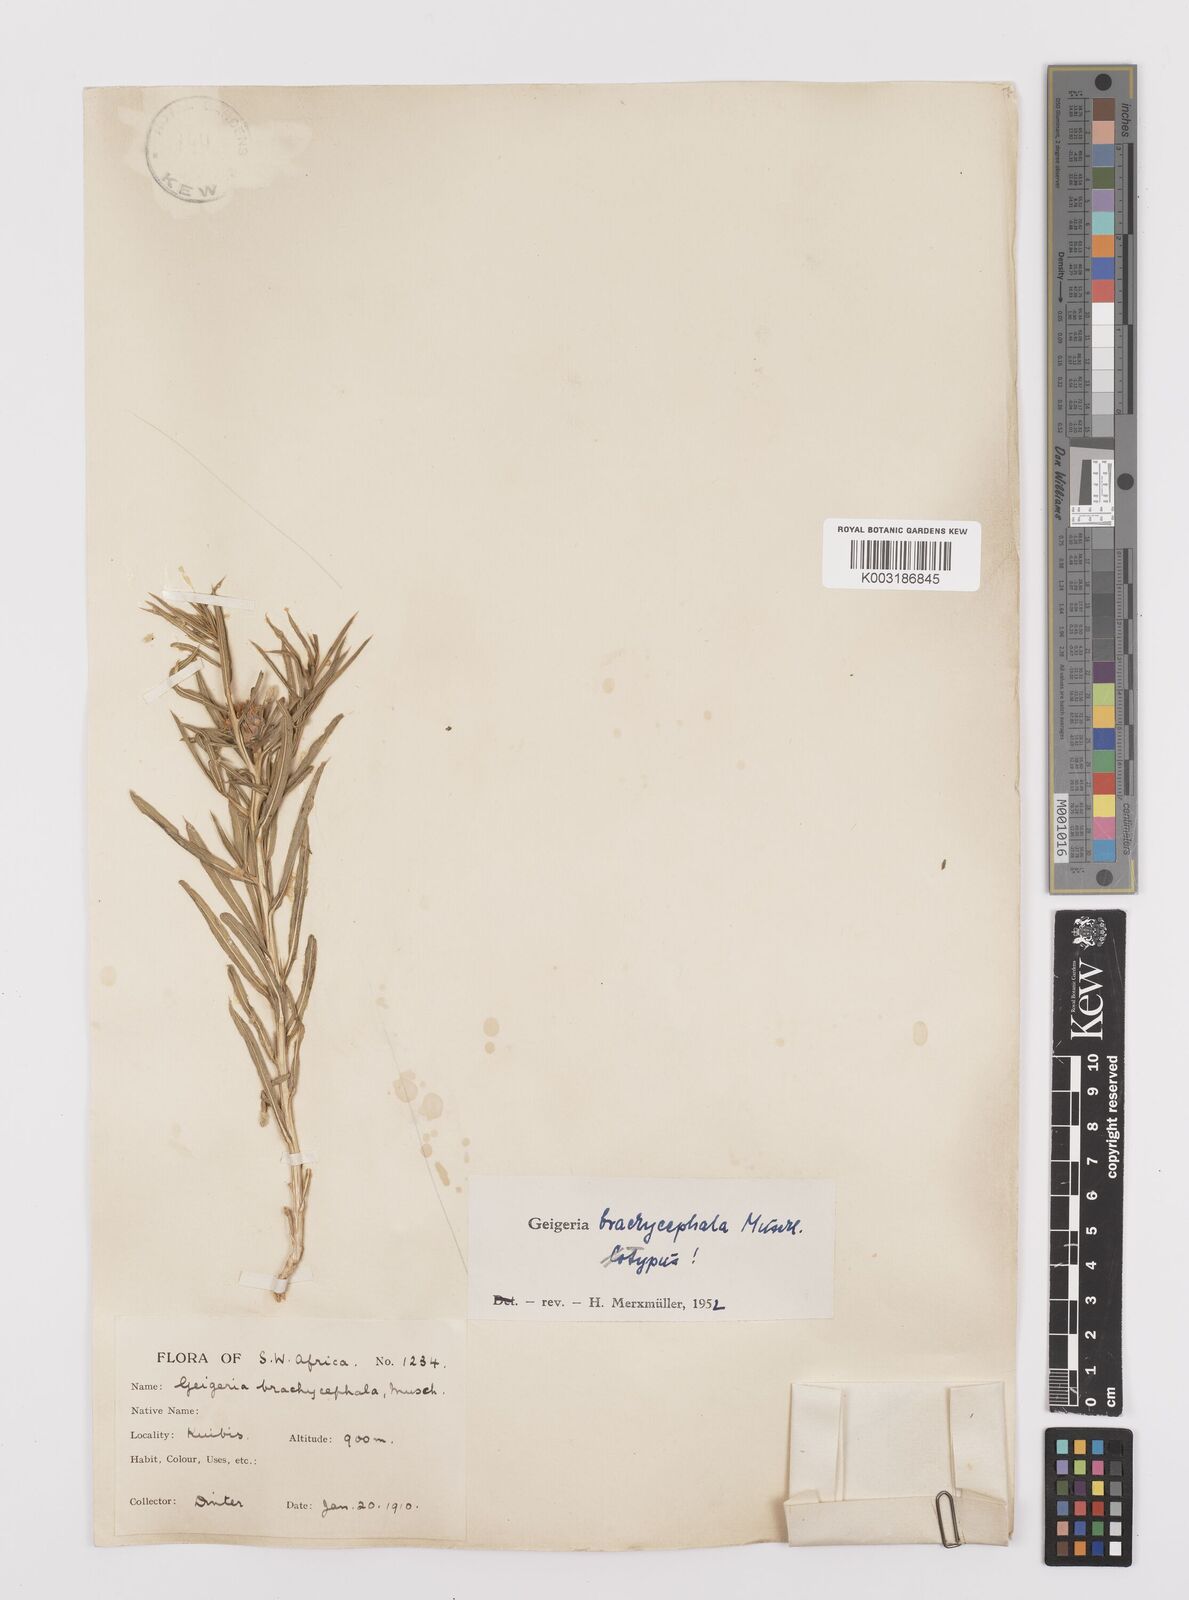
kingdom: Plantae
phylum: Tracheophyta
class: Magnoliopsida
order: Asterales
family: Asteraceae
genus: Geigeria
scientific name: Geigeria plumosa
